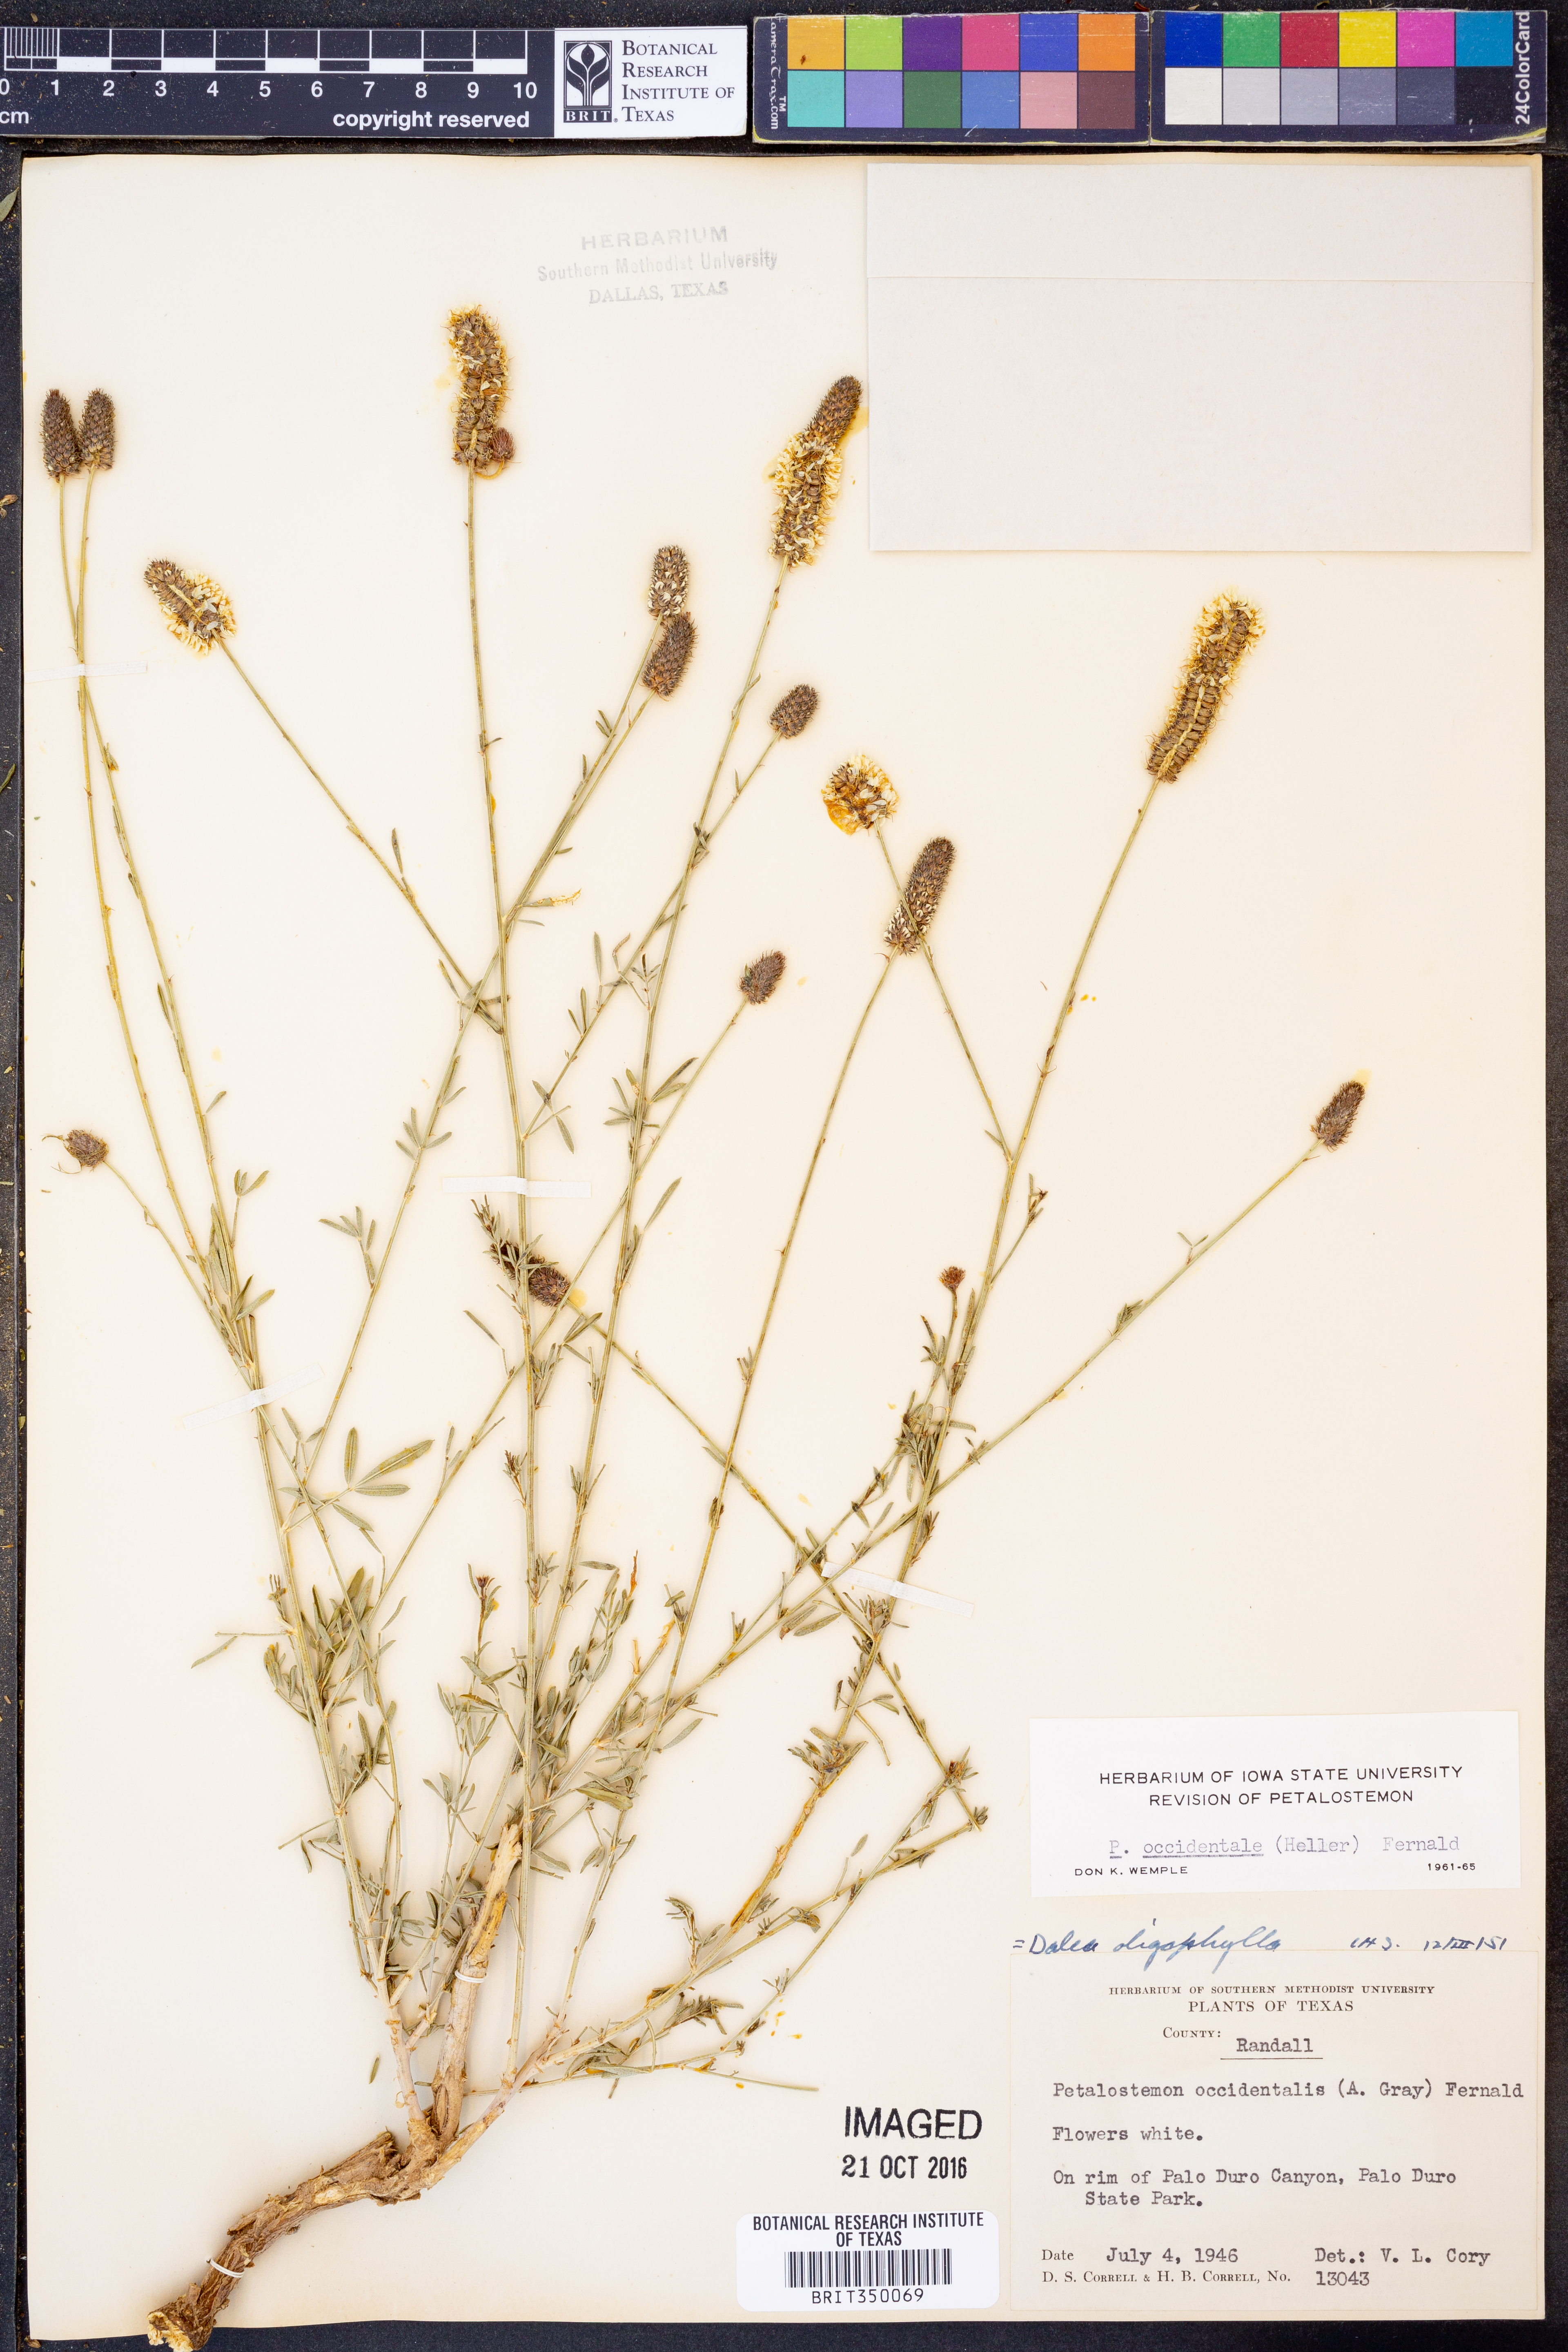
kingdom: Plantae
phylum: Tracheophyta
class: Magnoliopsida
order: Fabales
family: Fabaceae
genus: Dalea
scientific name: Dalea candida
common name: White prairie-clover
